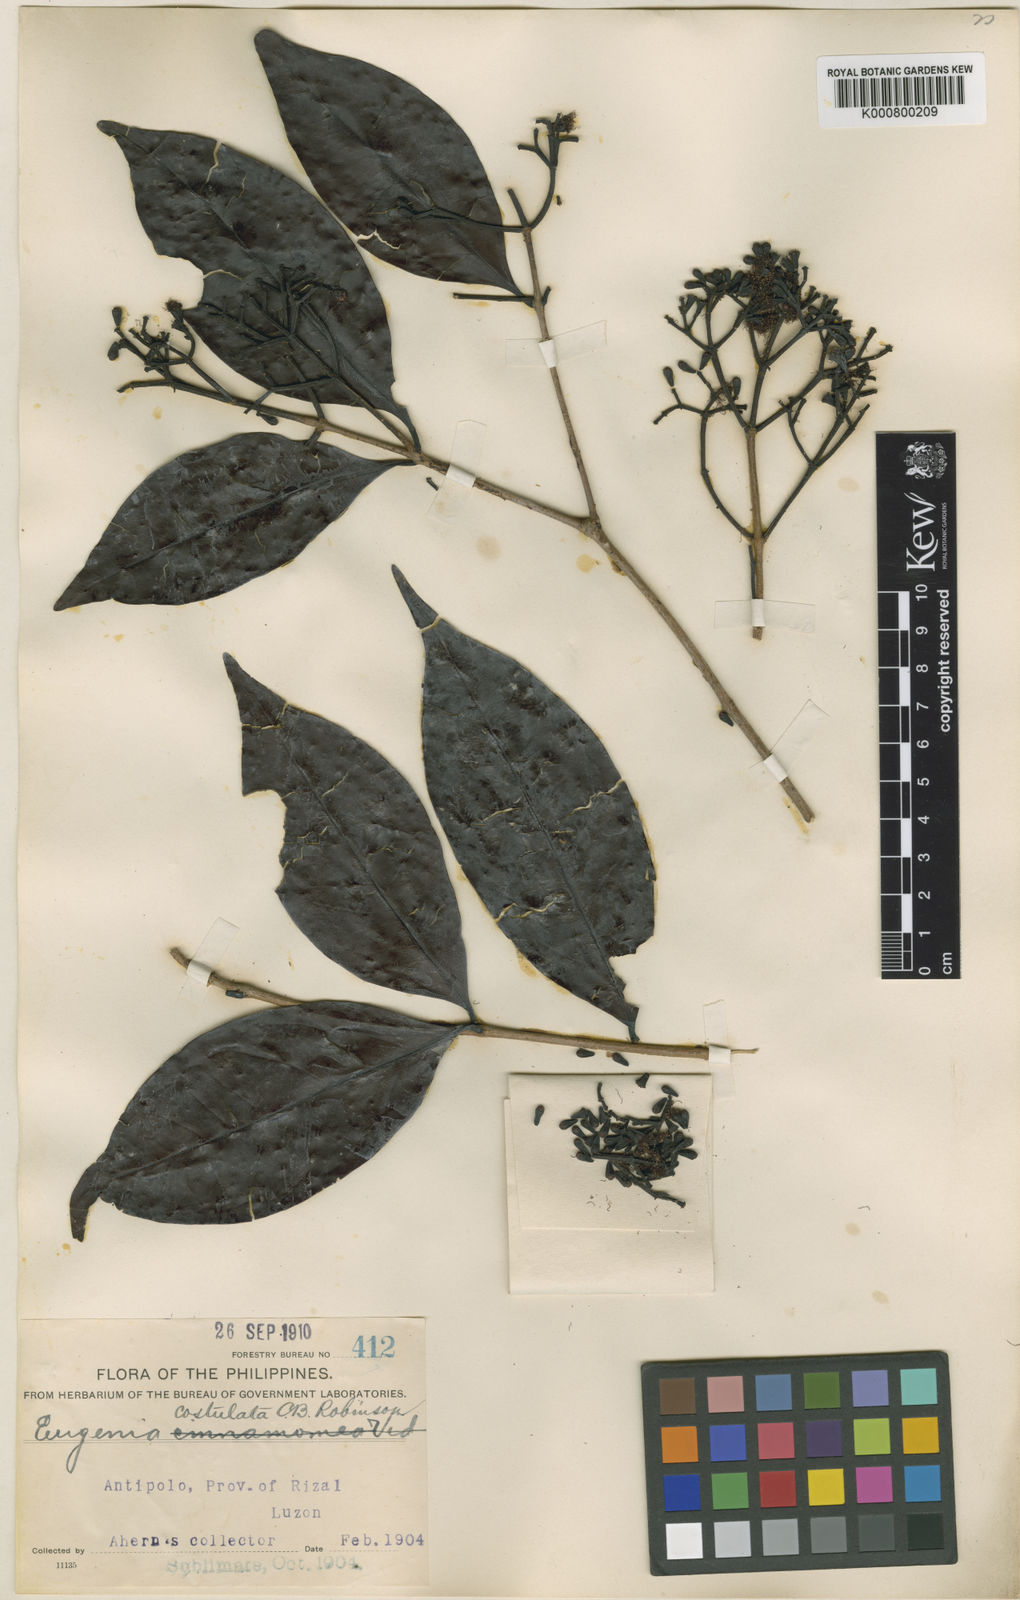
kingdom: Plantae
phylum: Tracheophyta
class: Magnoliopsida
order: Myrtales
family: Myrtaceae
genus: Syzygium
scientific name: Syzygium costulatum
